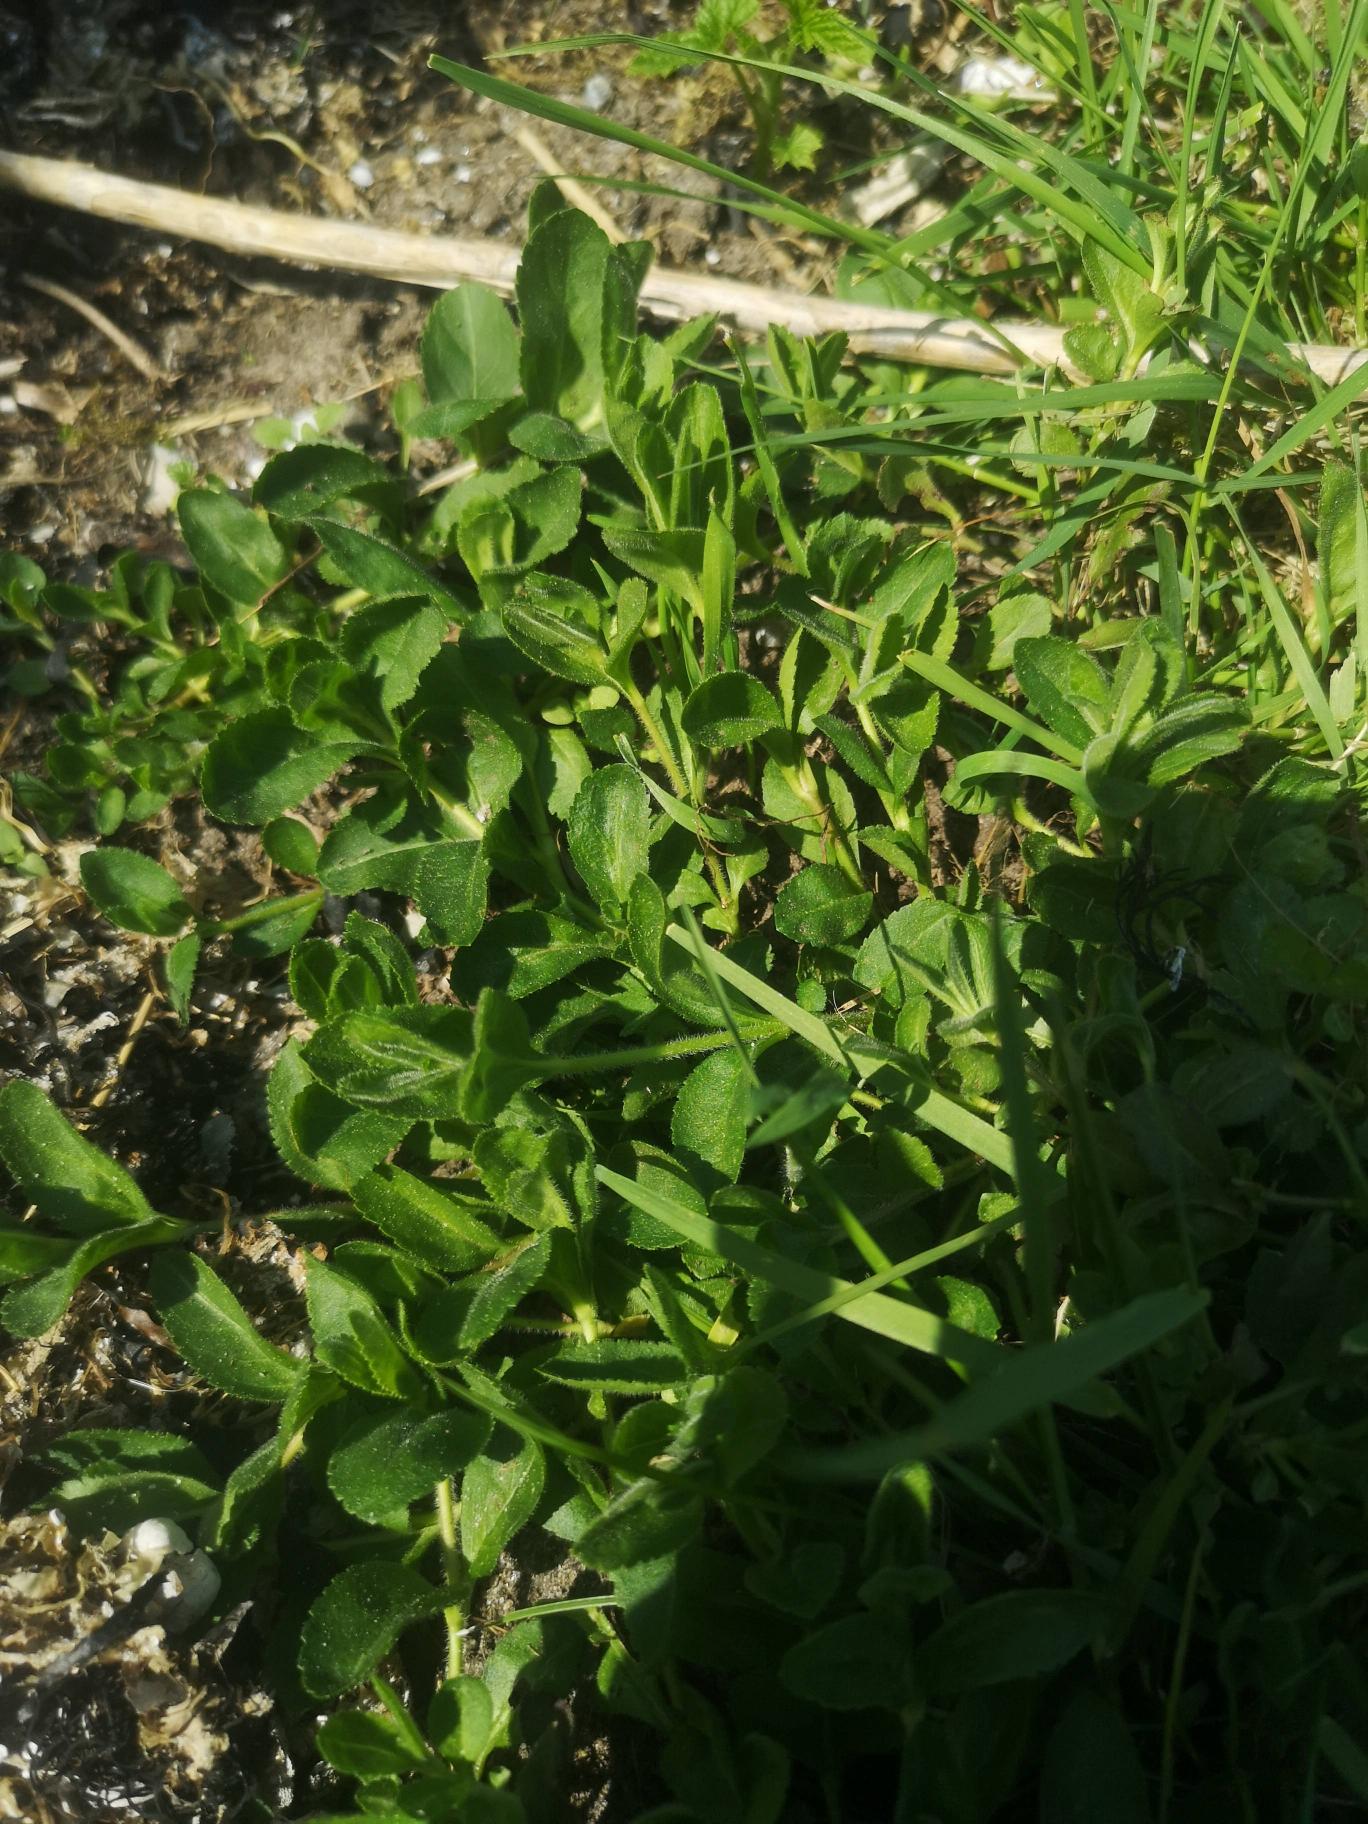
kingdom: Plantae
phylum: Tracheophyta
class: Magnoliopsida
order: Lamiales
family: Plantaginaceae
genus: Veronica
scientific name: Veronica officinalis
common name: Læge-ærenpris
